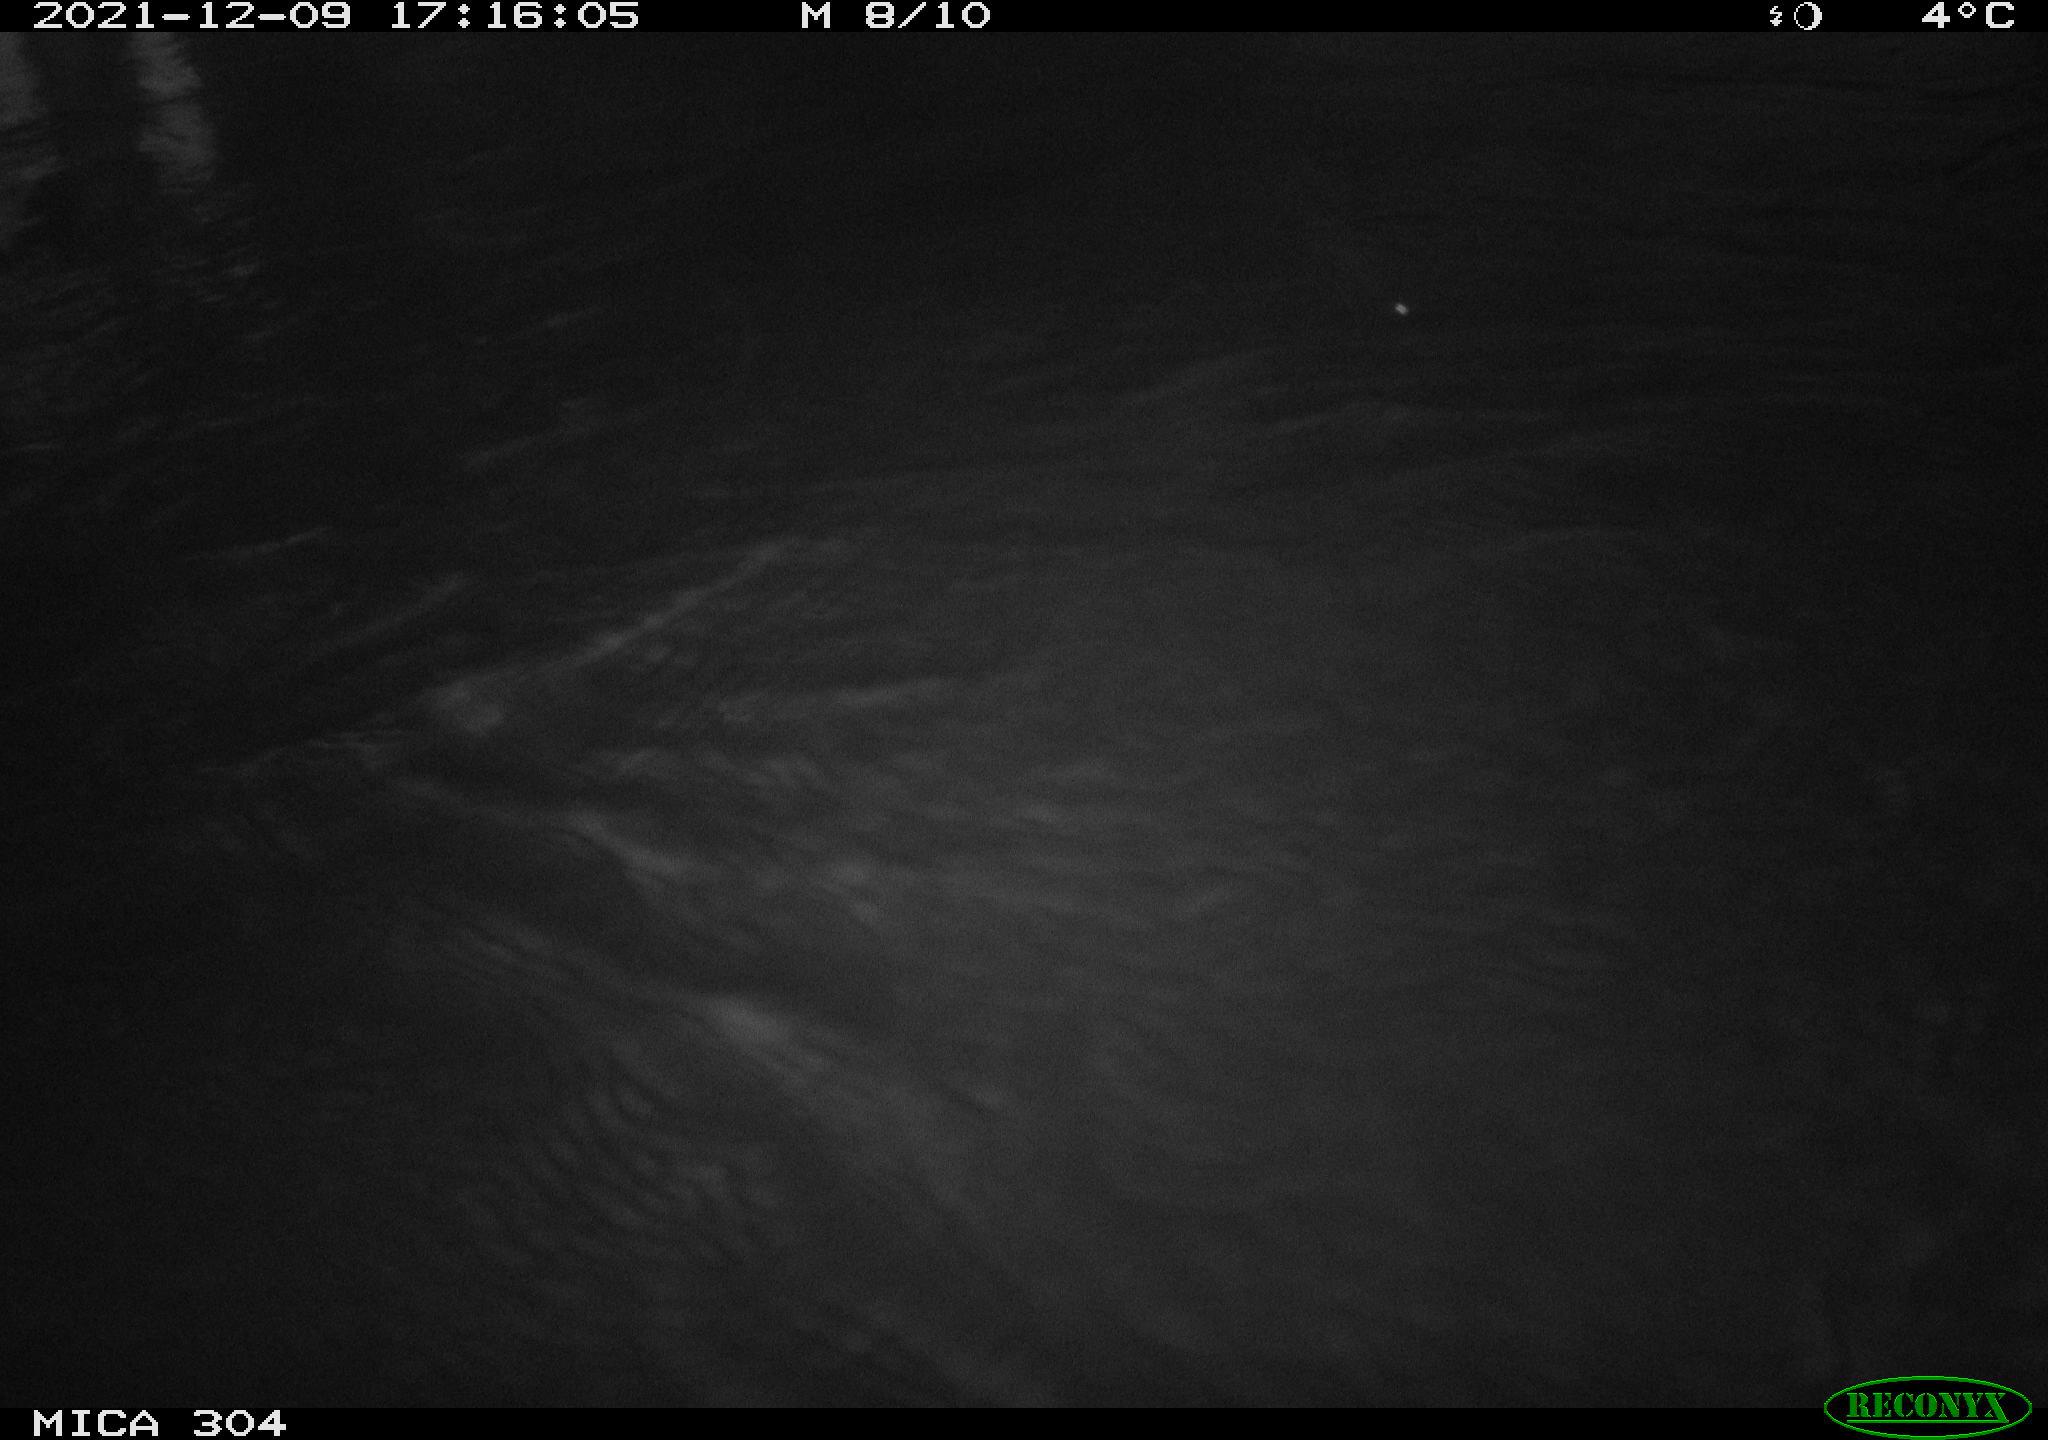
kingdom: Animalia
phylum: Chordata
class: Aves
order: Gruiformes
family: Rallidae
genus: Fulica
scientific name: Fulica atra
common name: Eurasian coot
